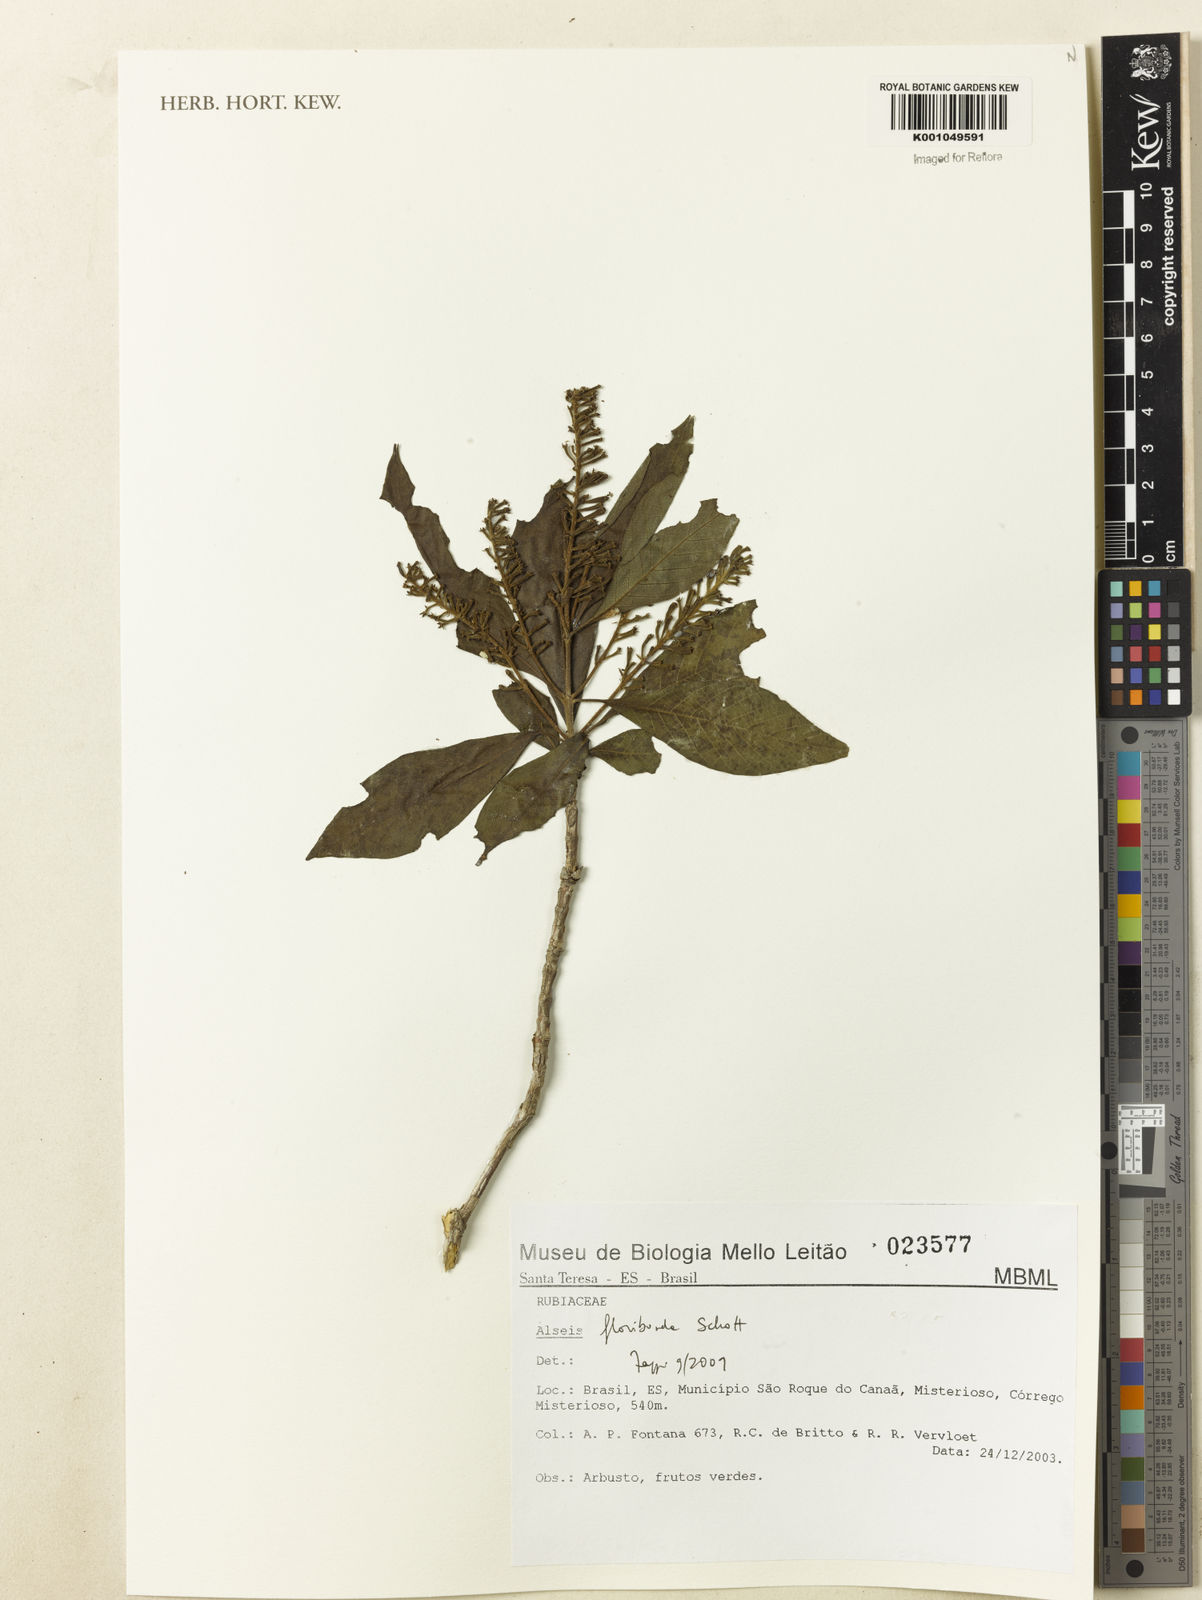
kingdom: Plantae
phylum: Tracheophyta
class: Magnoliopsida
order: Gentianales
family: Rubiaceae
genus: Alseis
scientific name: Alseis floribunda
